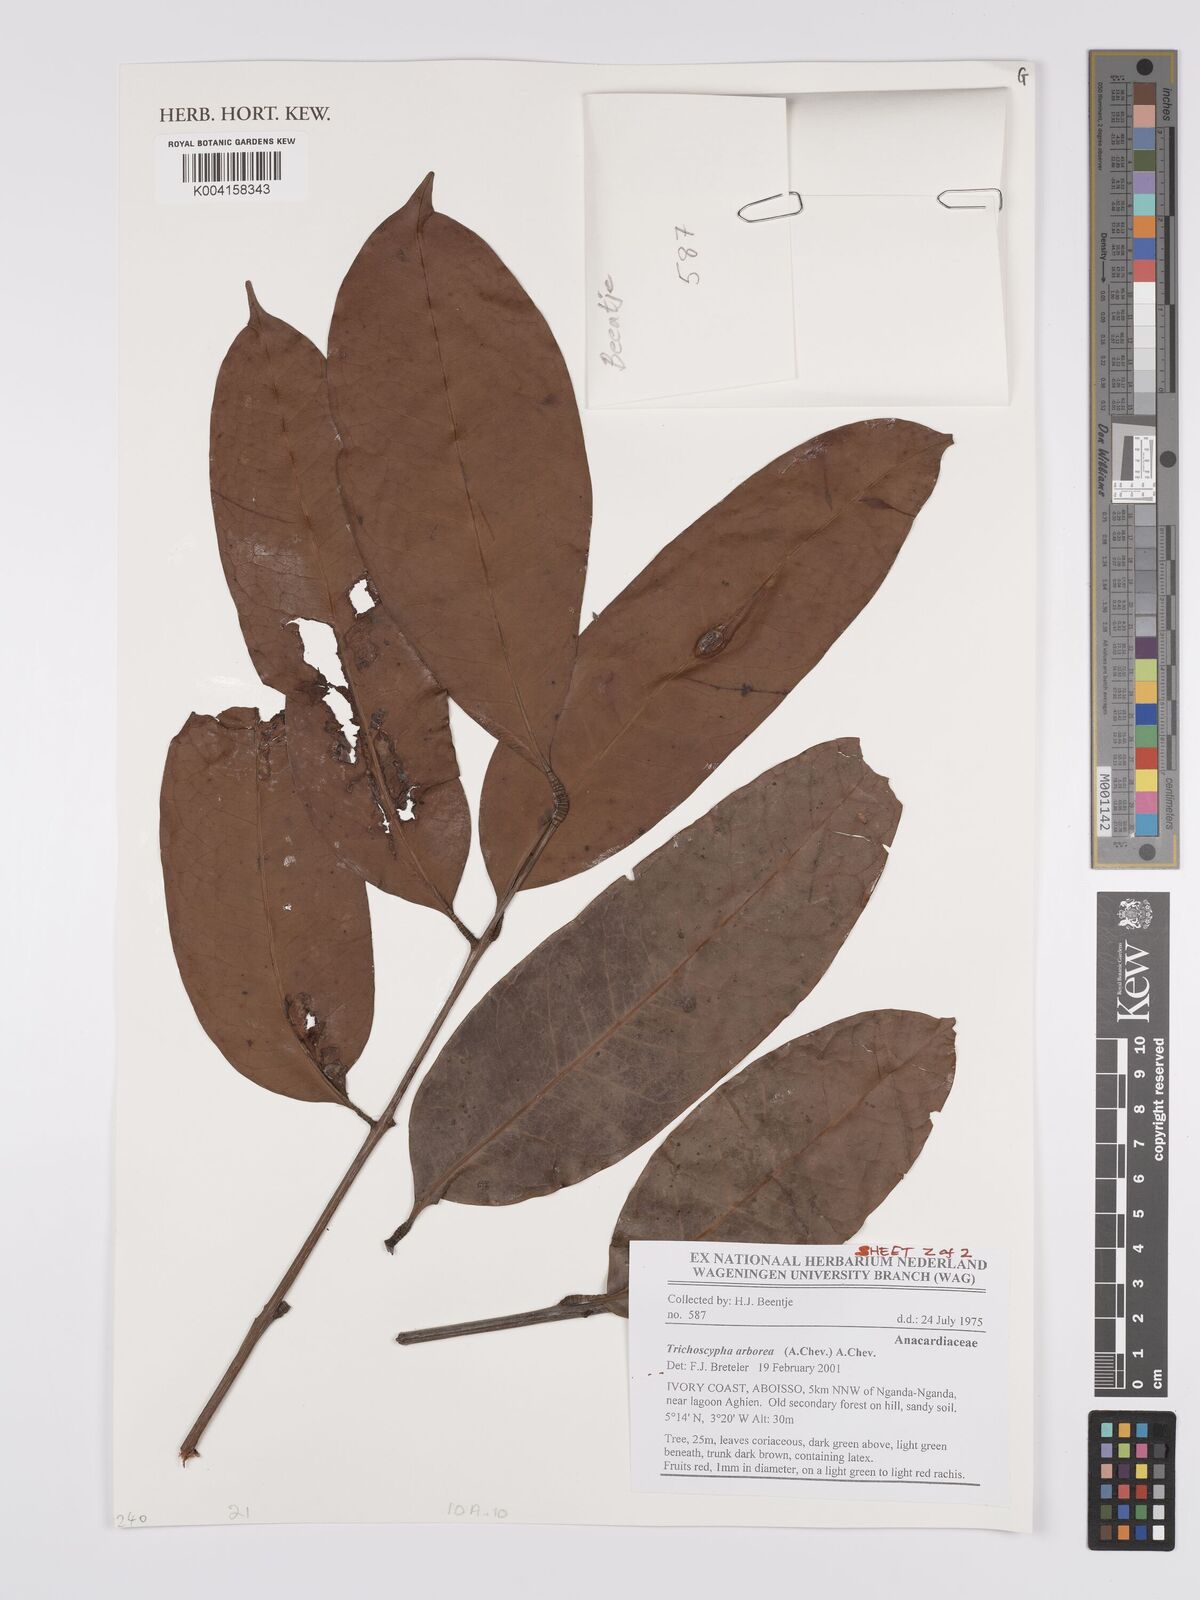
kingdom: Plantae
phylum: Tracheophyta
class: Magnoliopsida
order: Sapindales
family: Anacardiaceae
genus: Trichoscypha
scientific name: Trichoscypha arborea
